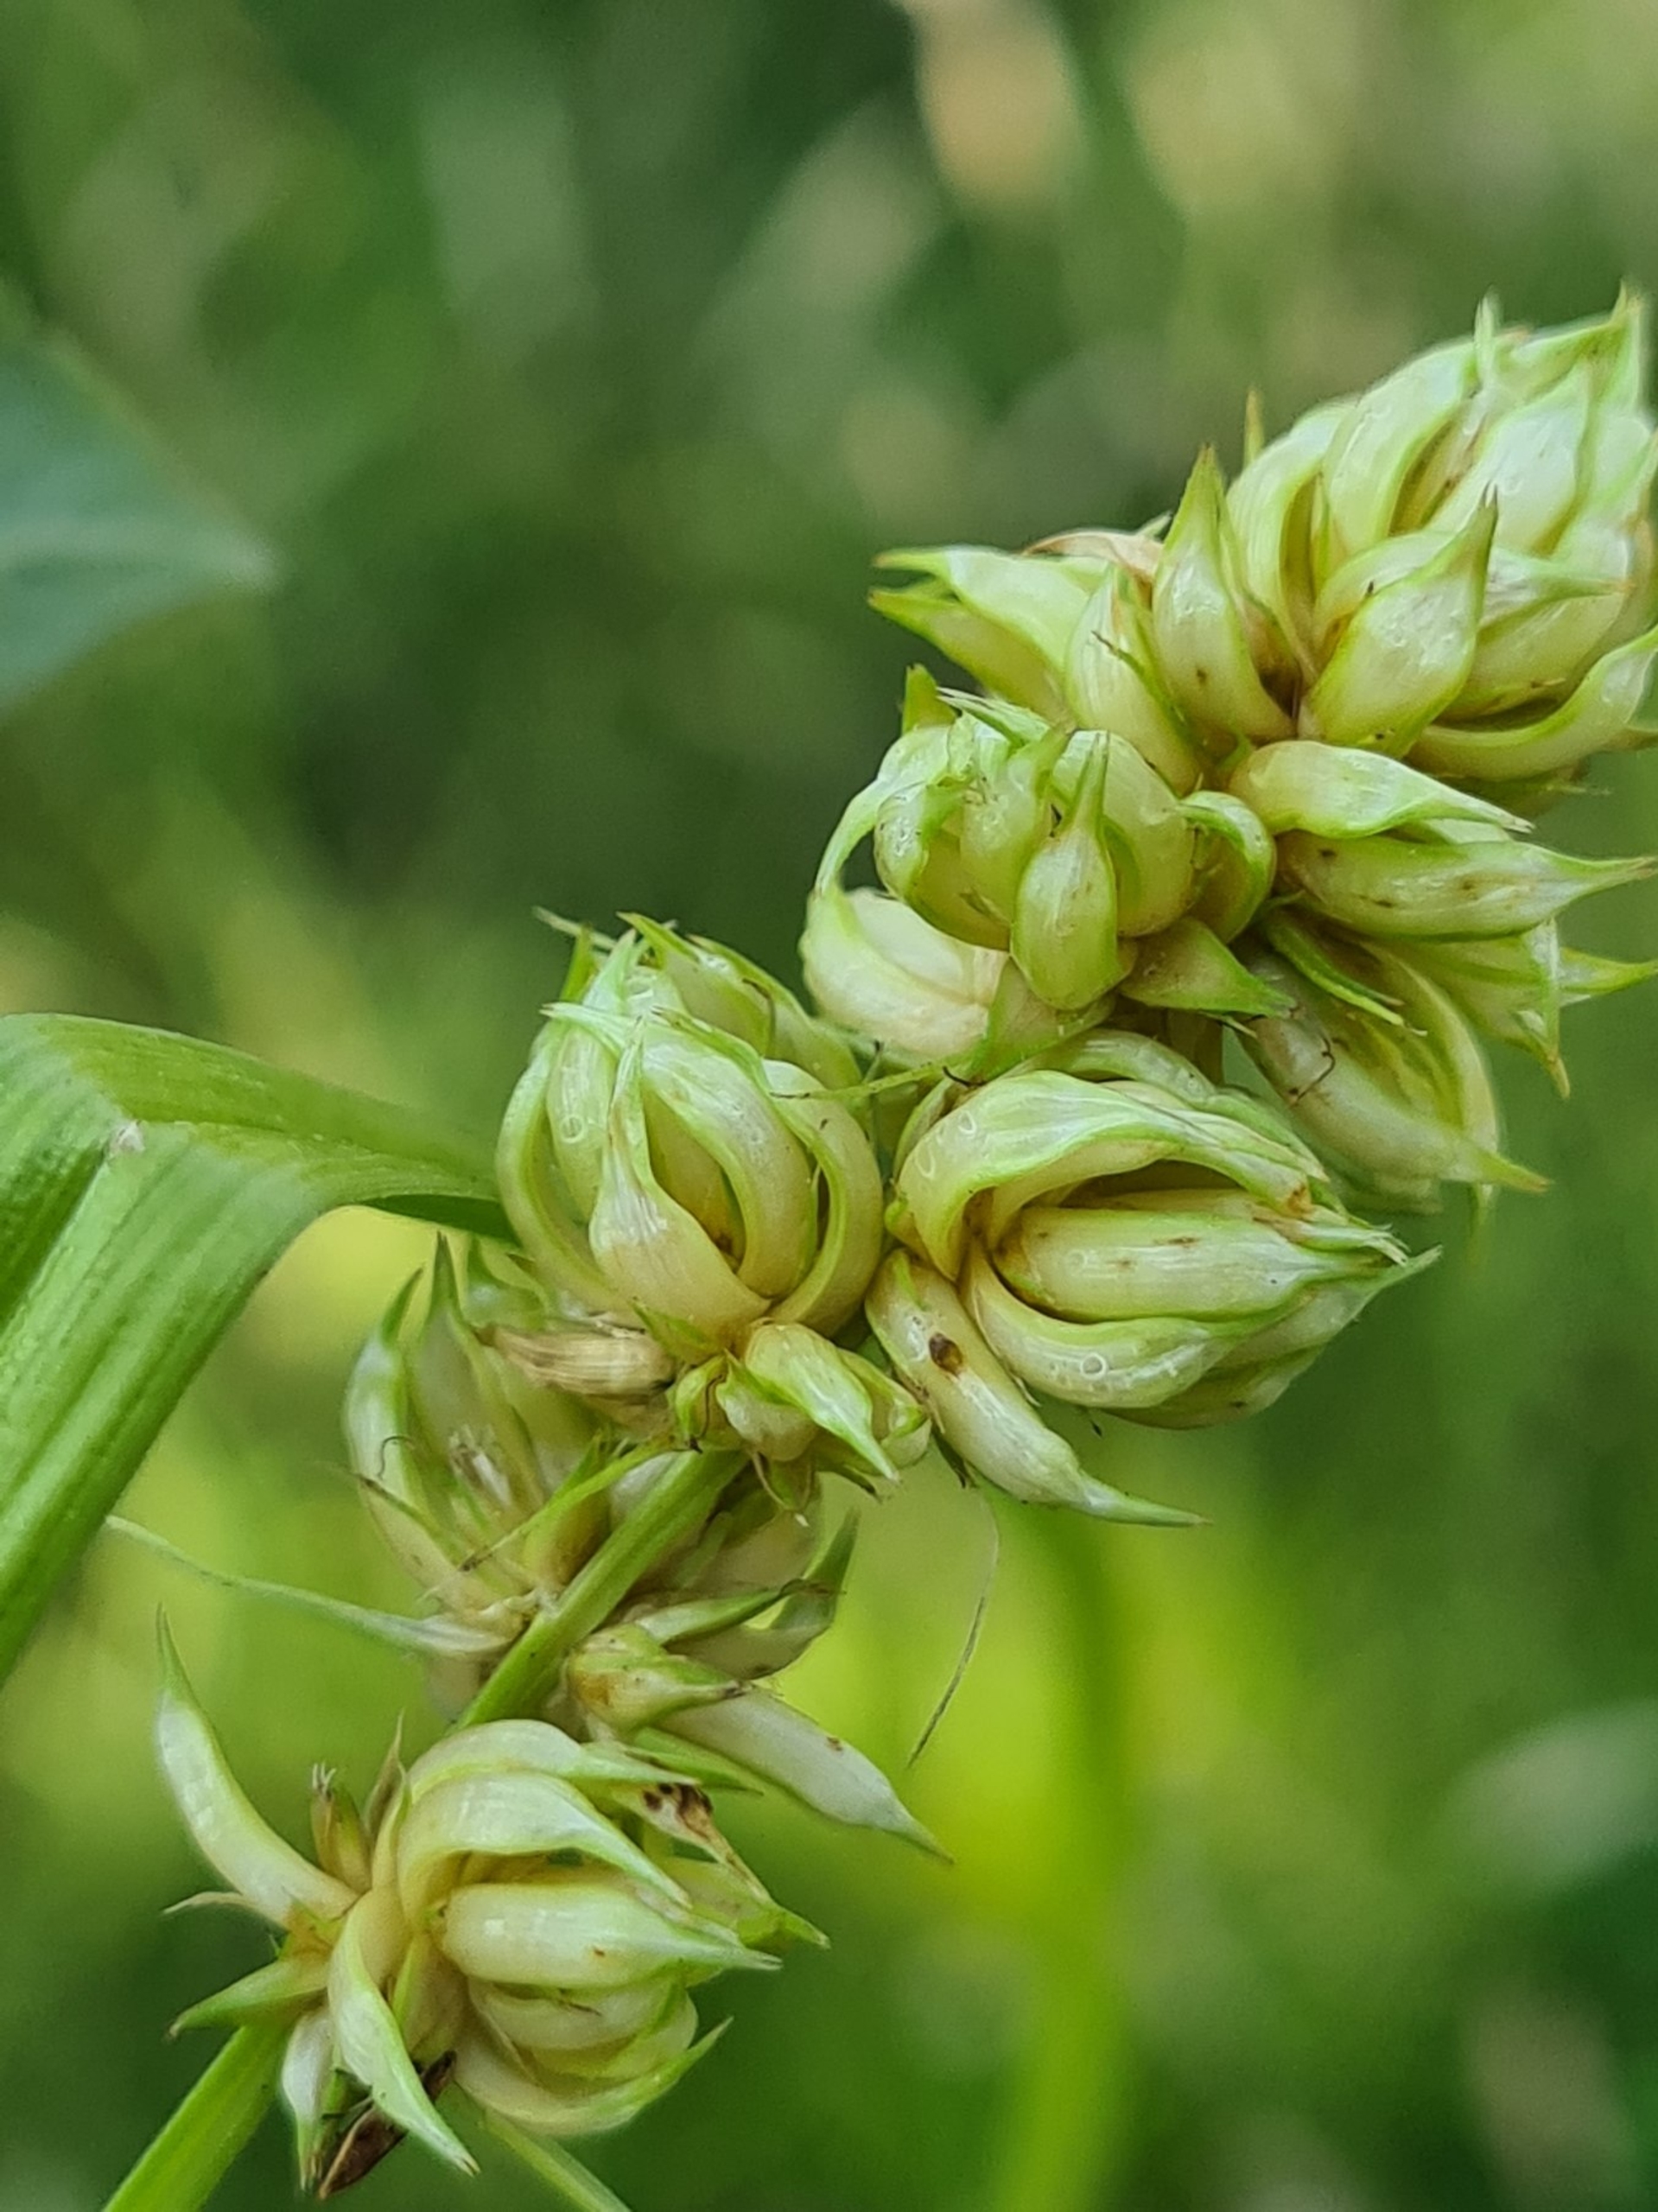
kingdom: Plantae
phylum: Tracheophyta
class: Liliopsida
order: Poales
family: Cyperaceae
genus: Carex
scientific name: Carex otrubae
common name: Sylt-star
